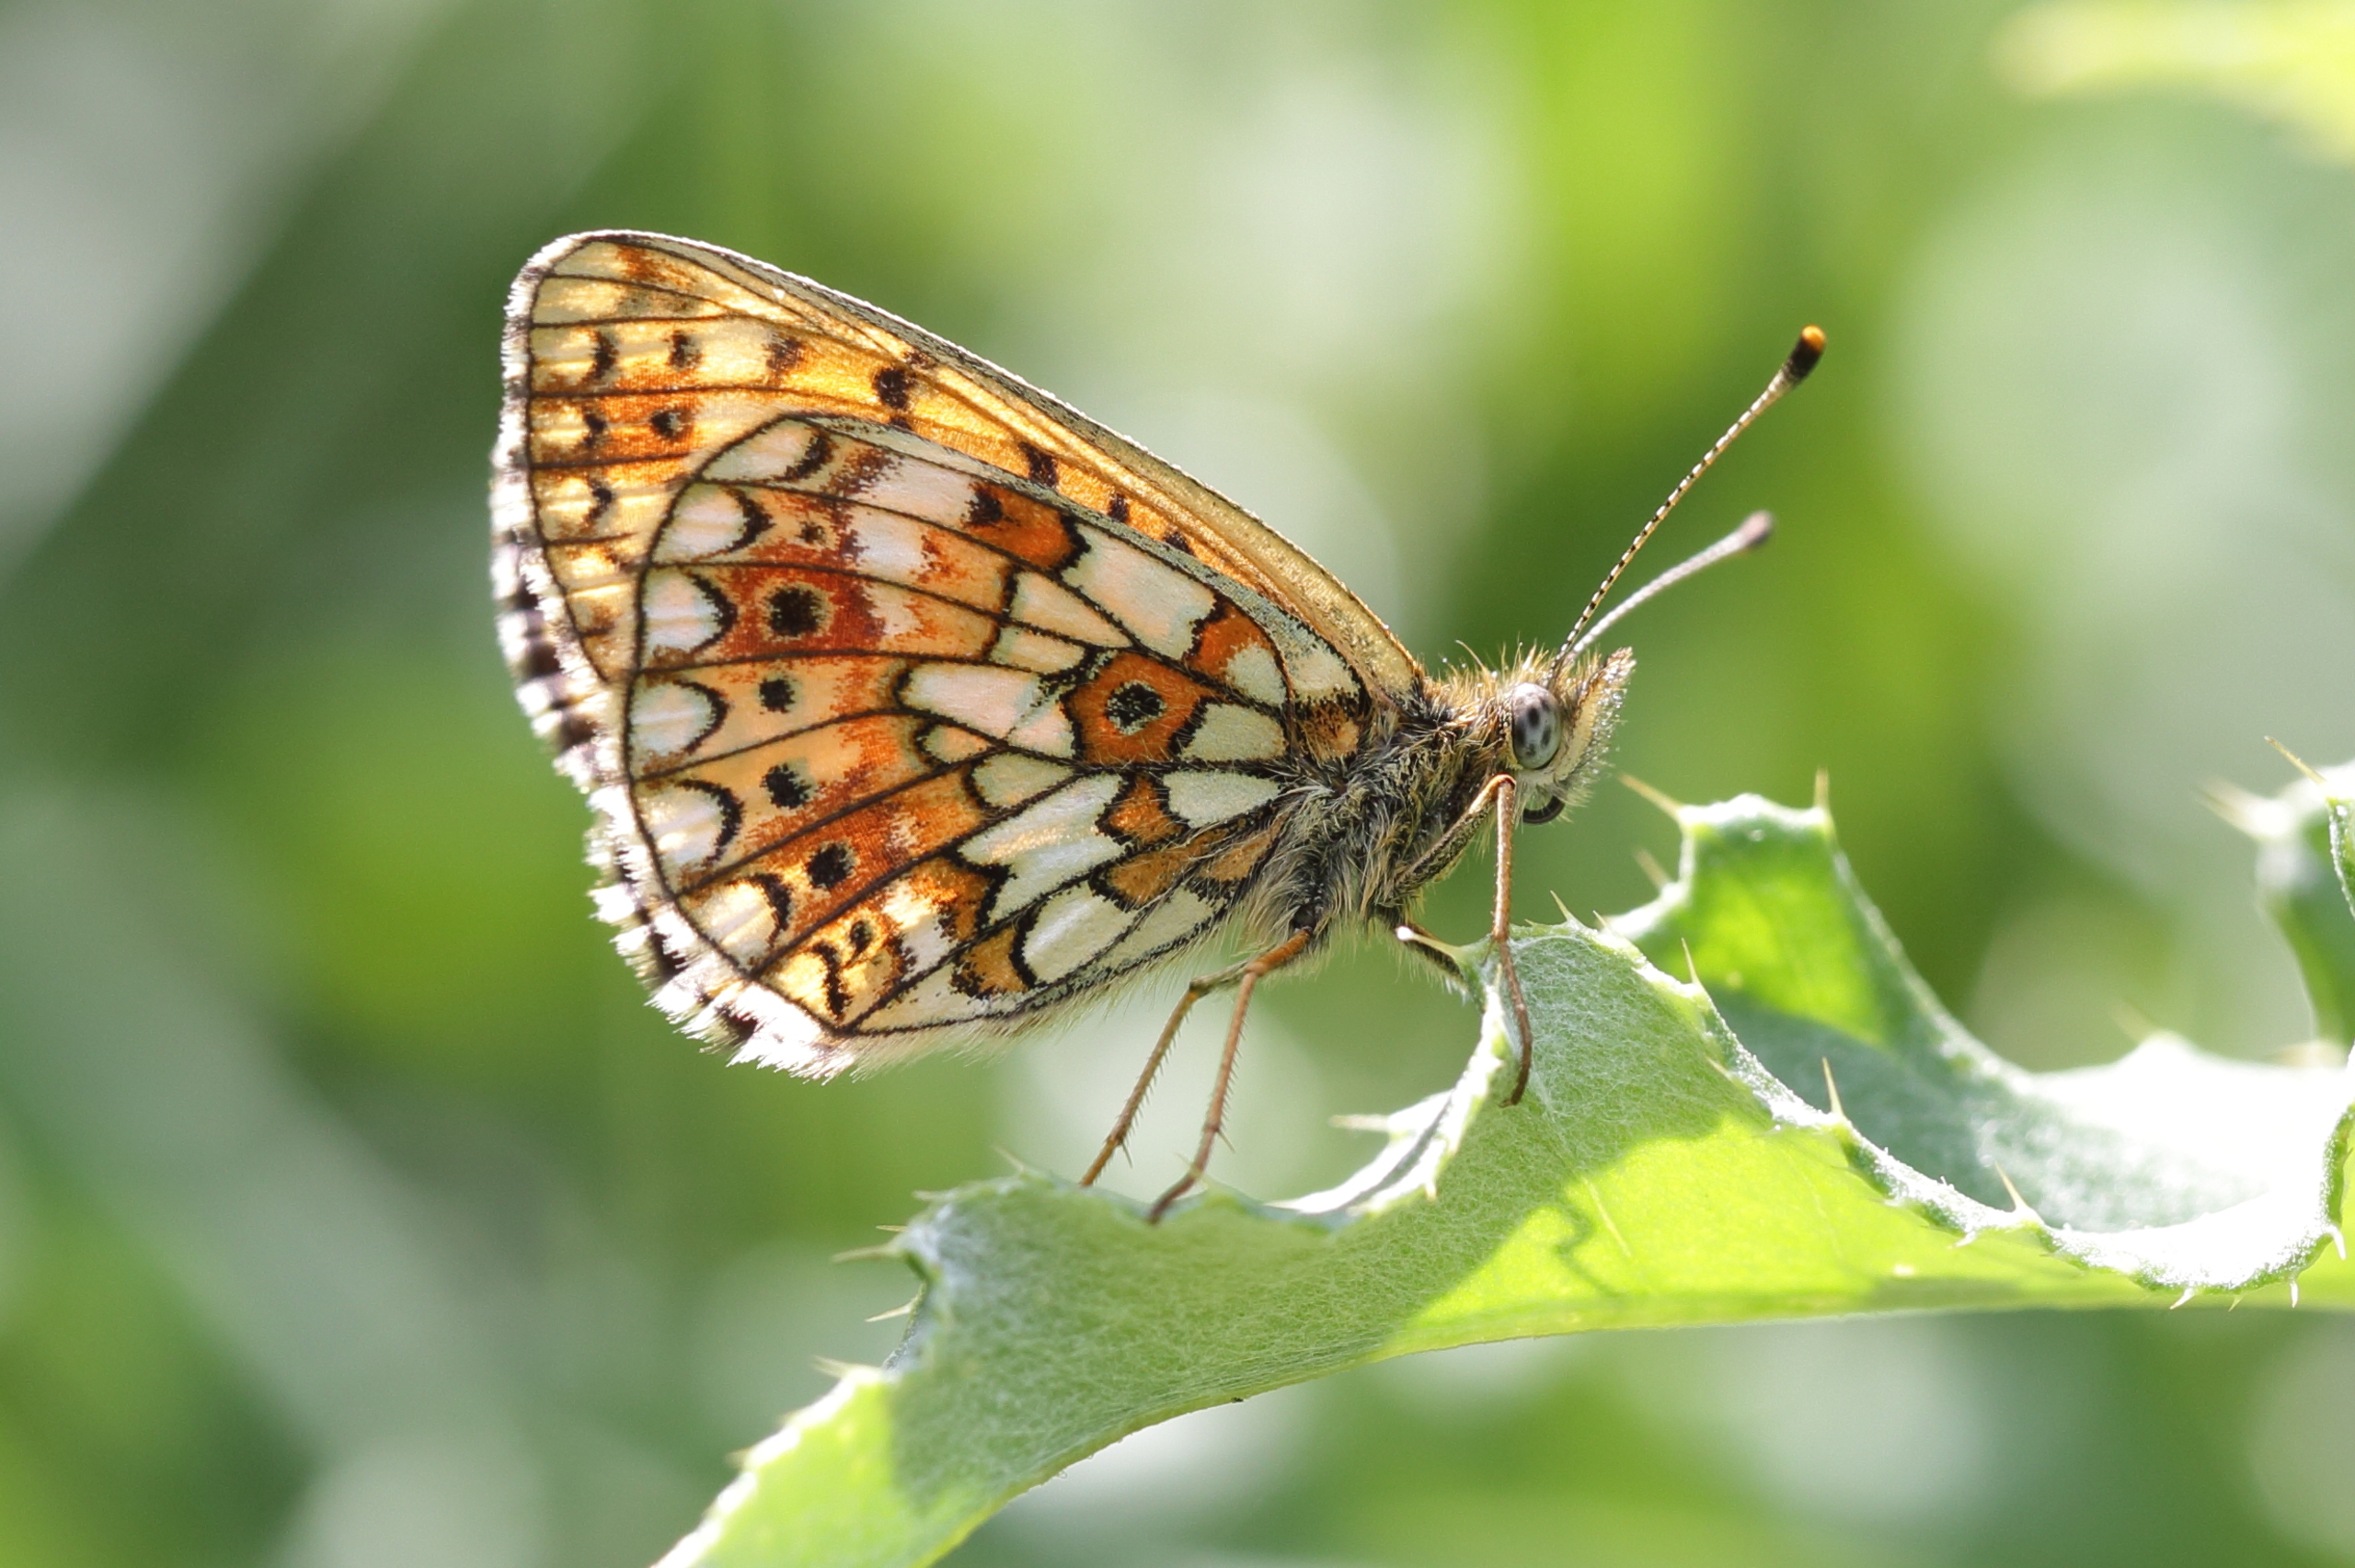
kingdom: Animalia
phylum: Arthropoda
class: Insecta
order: Lepidoptera
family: Nymphalidae
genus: Boloria
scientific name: Boloria selene
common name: Brunlig perlemorsommerfugl
